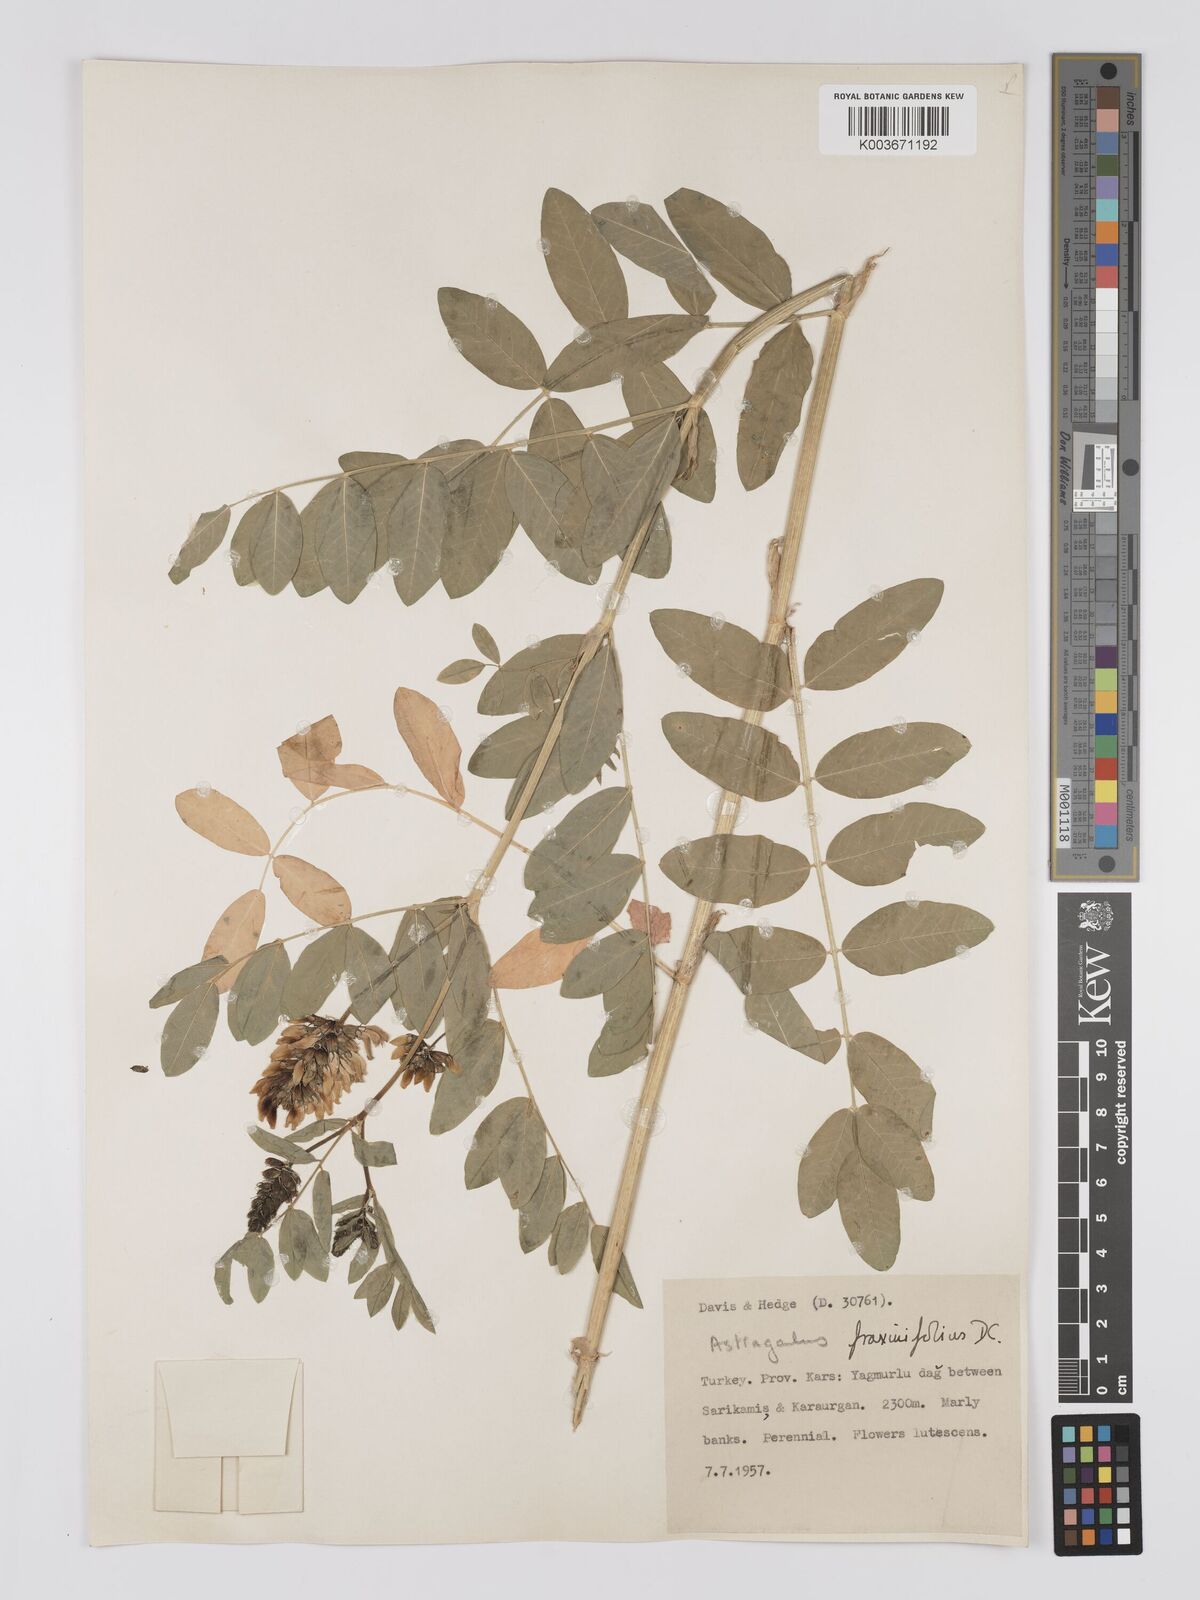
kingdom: Plantae
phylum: Tracheophyta
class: Magnoliopsida
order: Fabales
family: Fabaceae
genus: Astragalus
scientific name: Astragalus fraxinifolius
